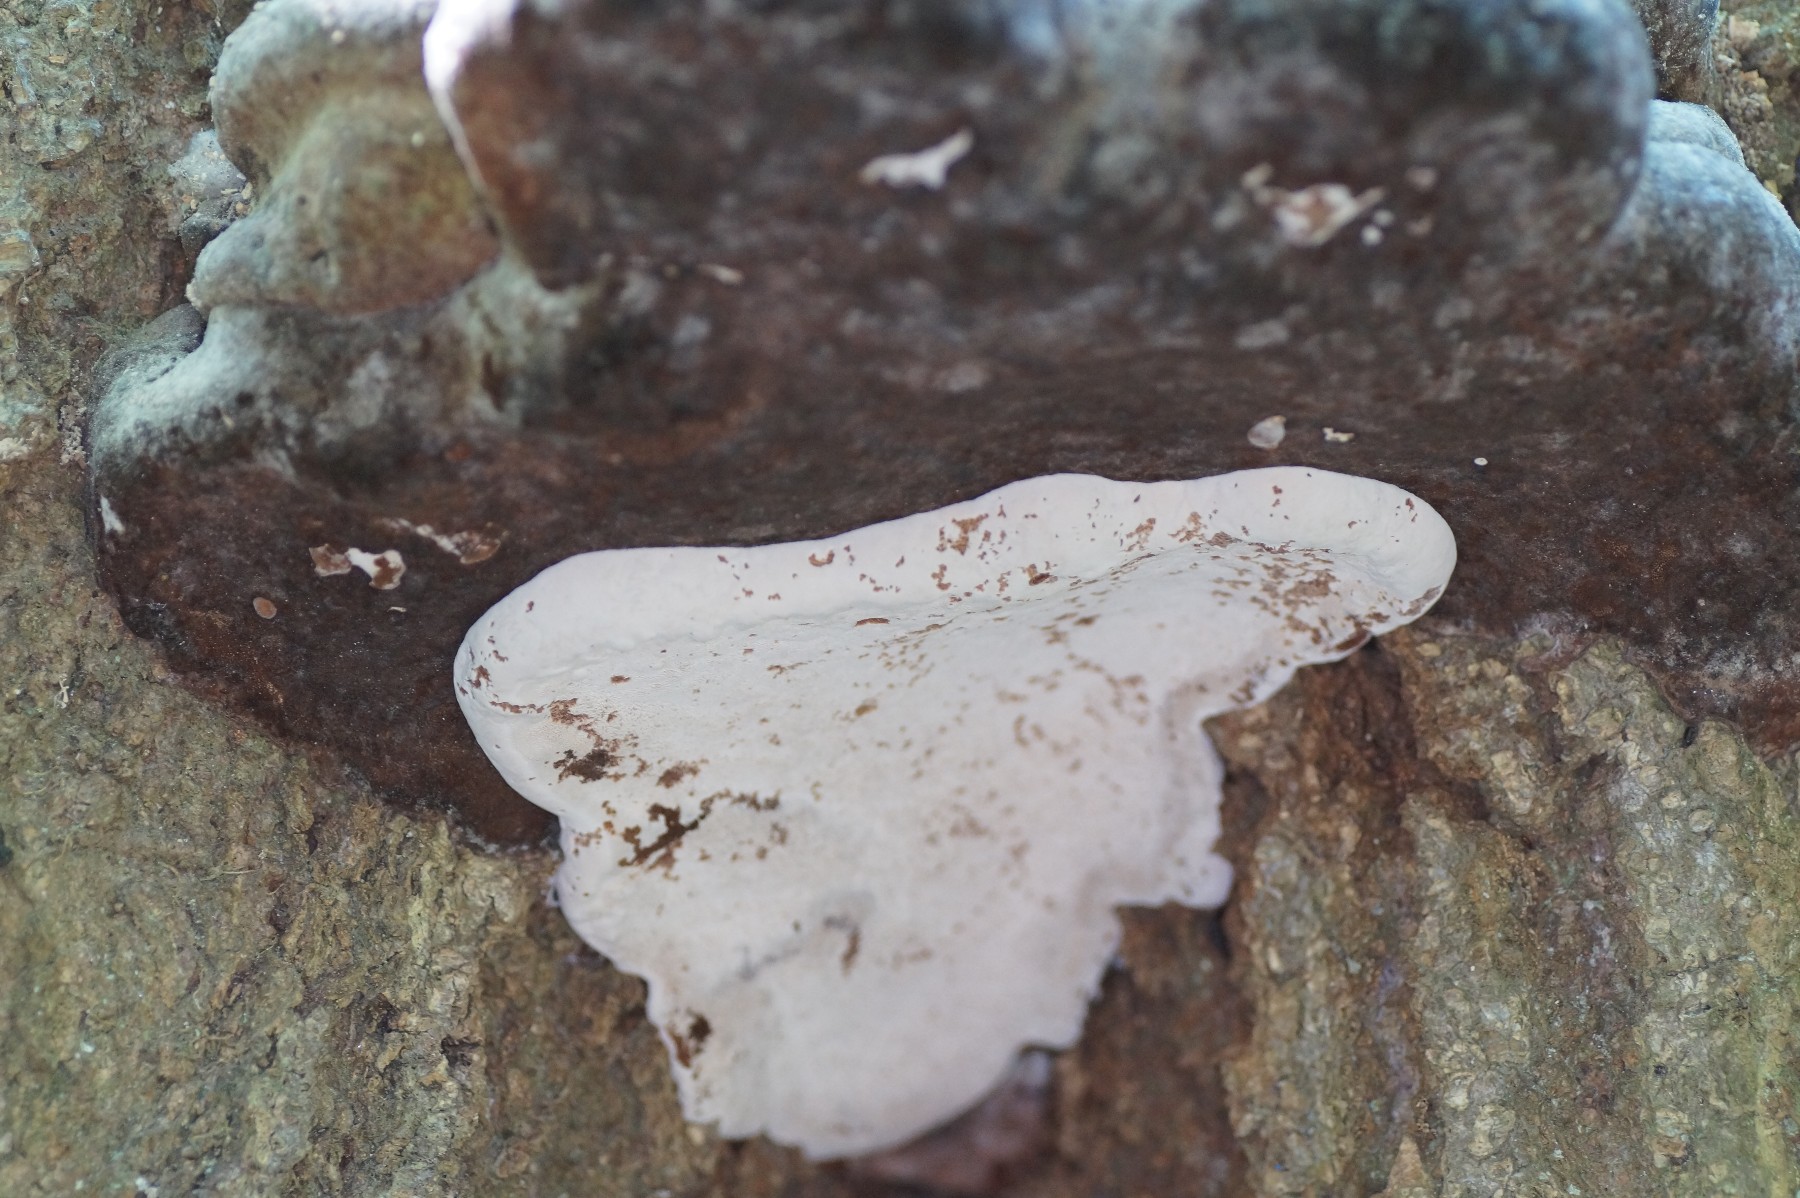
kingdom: Fungi
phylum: Basidiomycota
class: Agaricomycetes
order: Polyporales
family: Polyporaceae
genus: Ganoderma
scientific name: Ganoderma adspersum
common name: grov lakporesvamp
